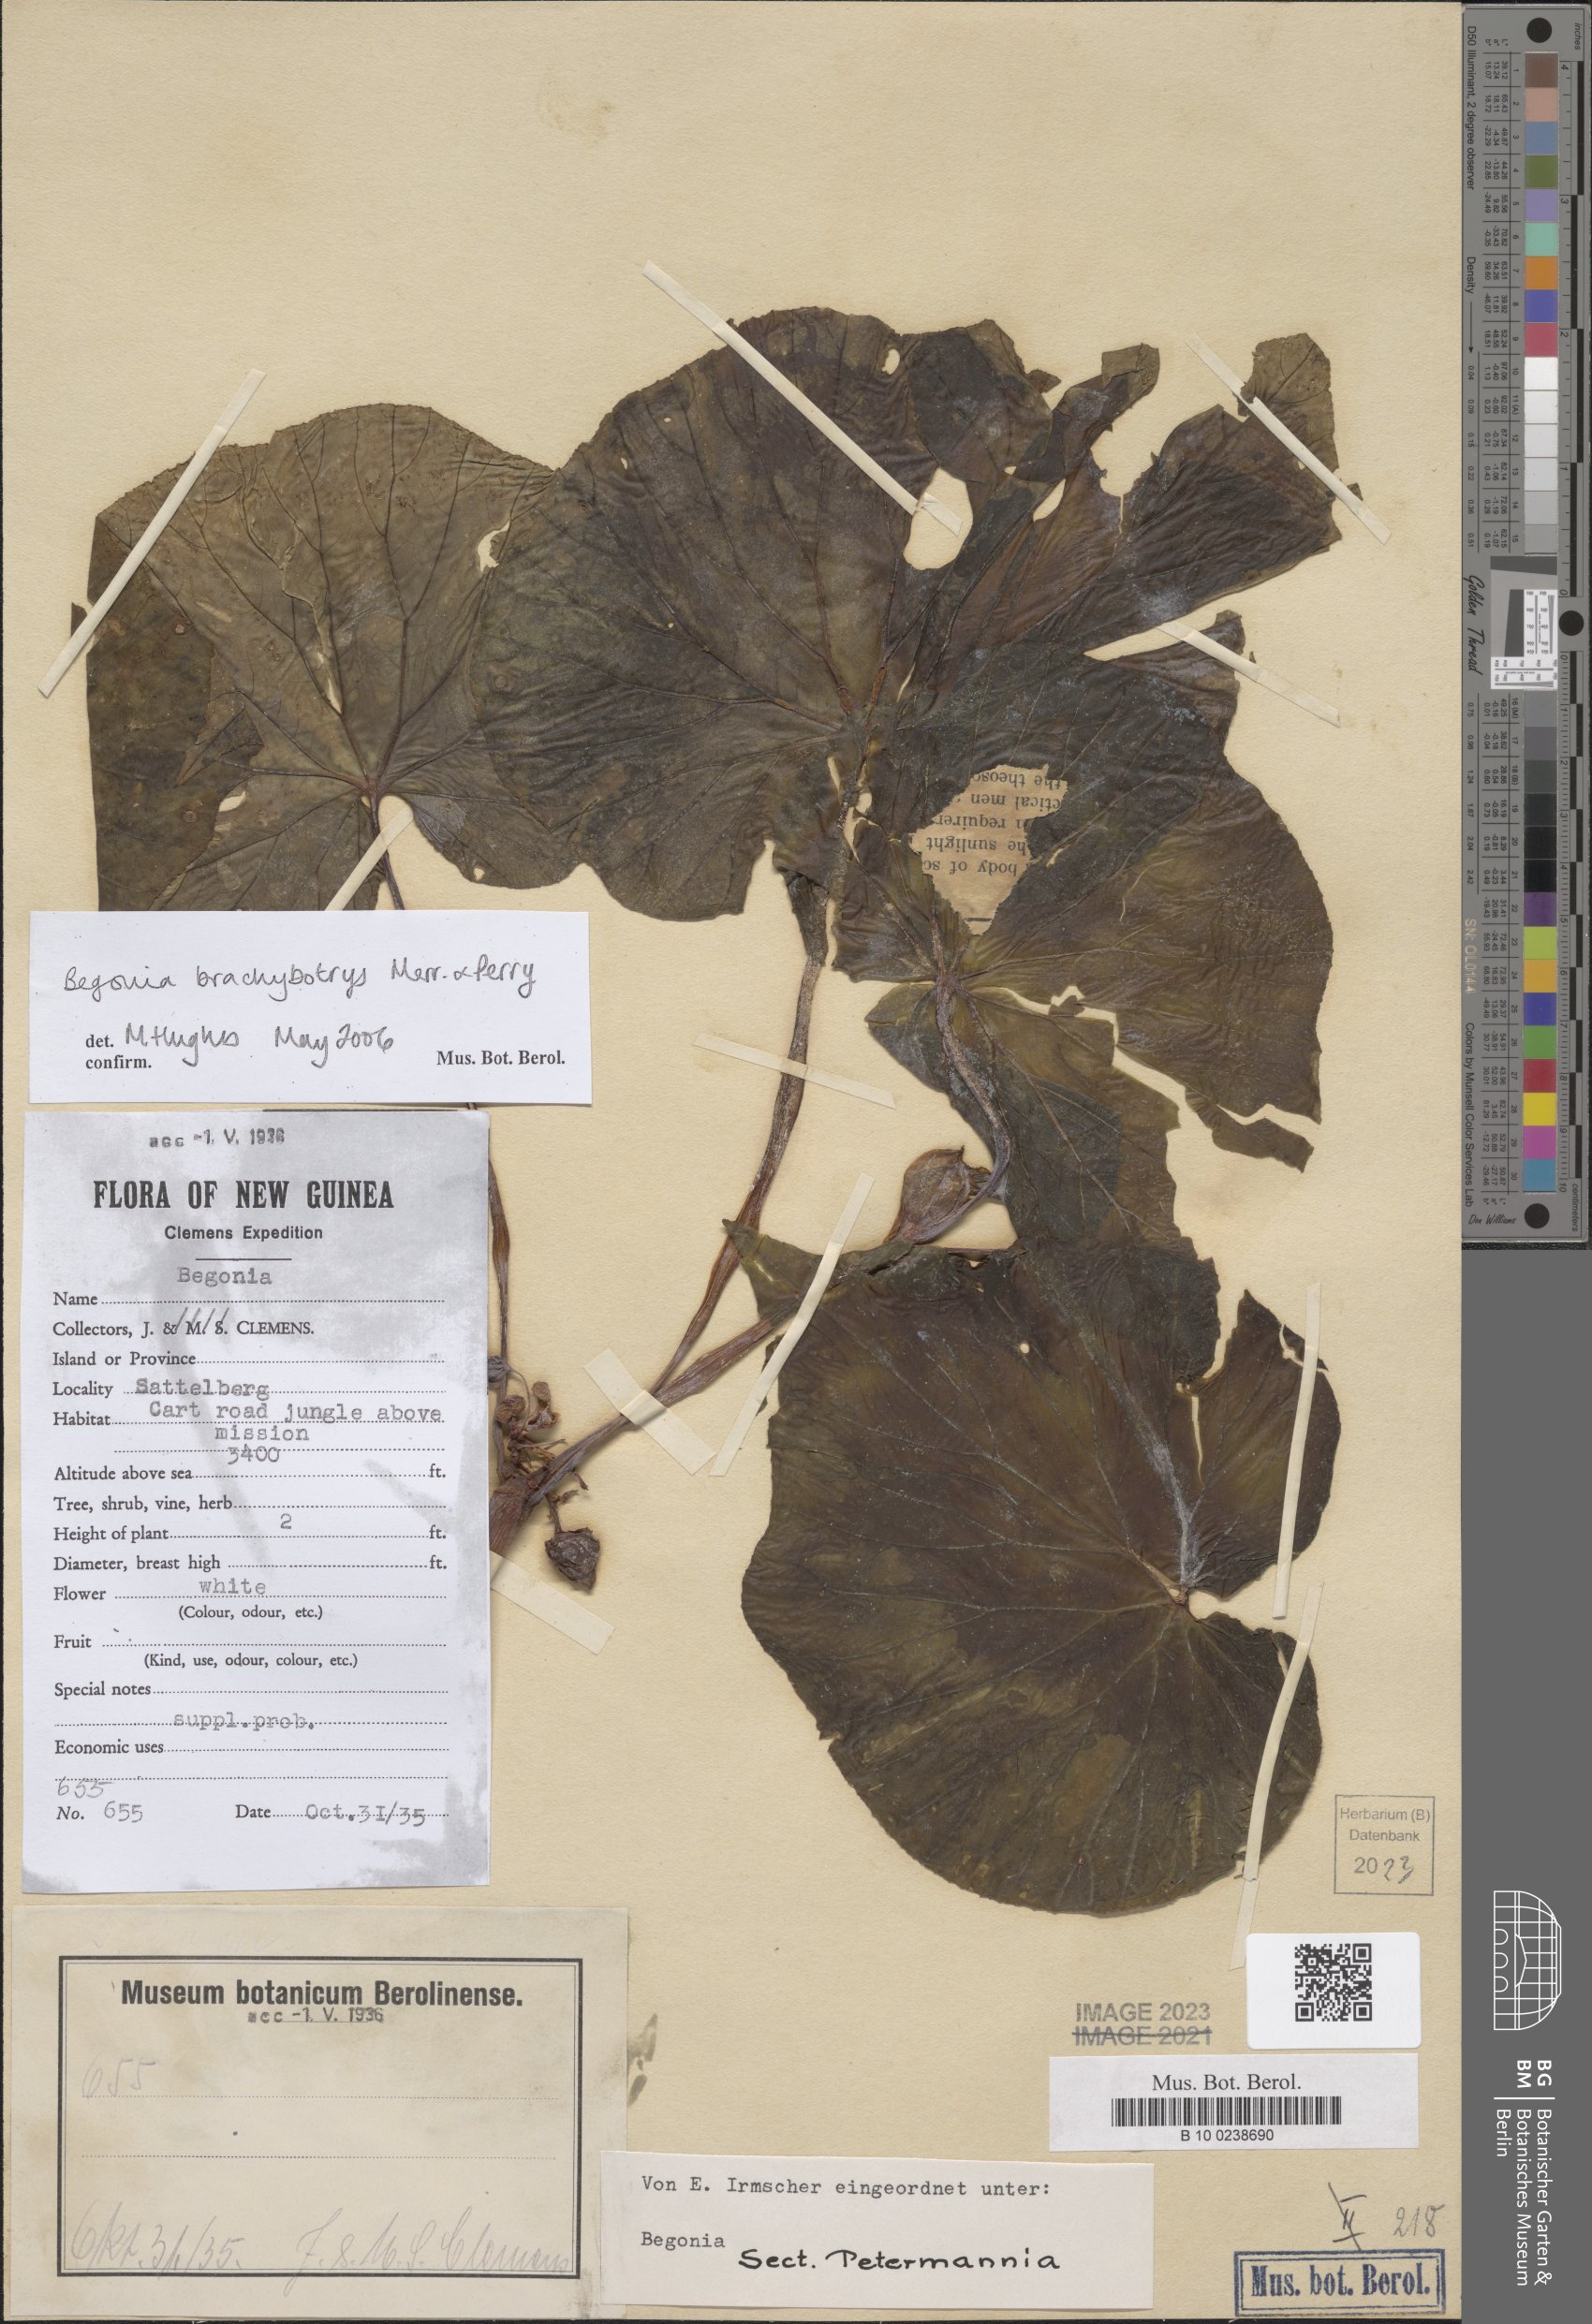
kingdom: Plantae
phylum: Tracheophyta
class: Magnoliopsida
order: Cucurbitales
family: Begoniaceae
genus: Begonia
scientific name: Begonia brachybotrys
